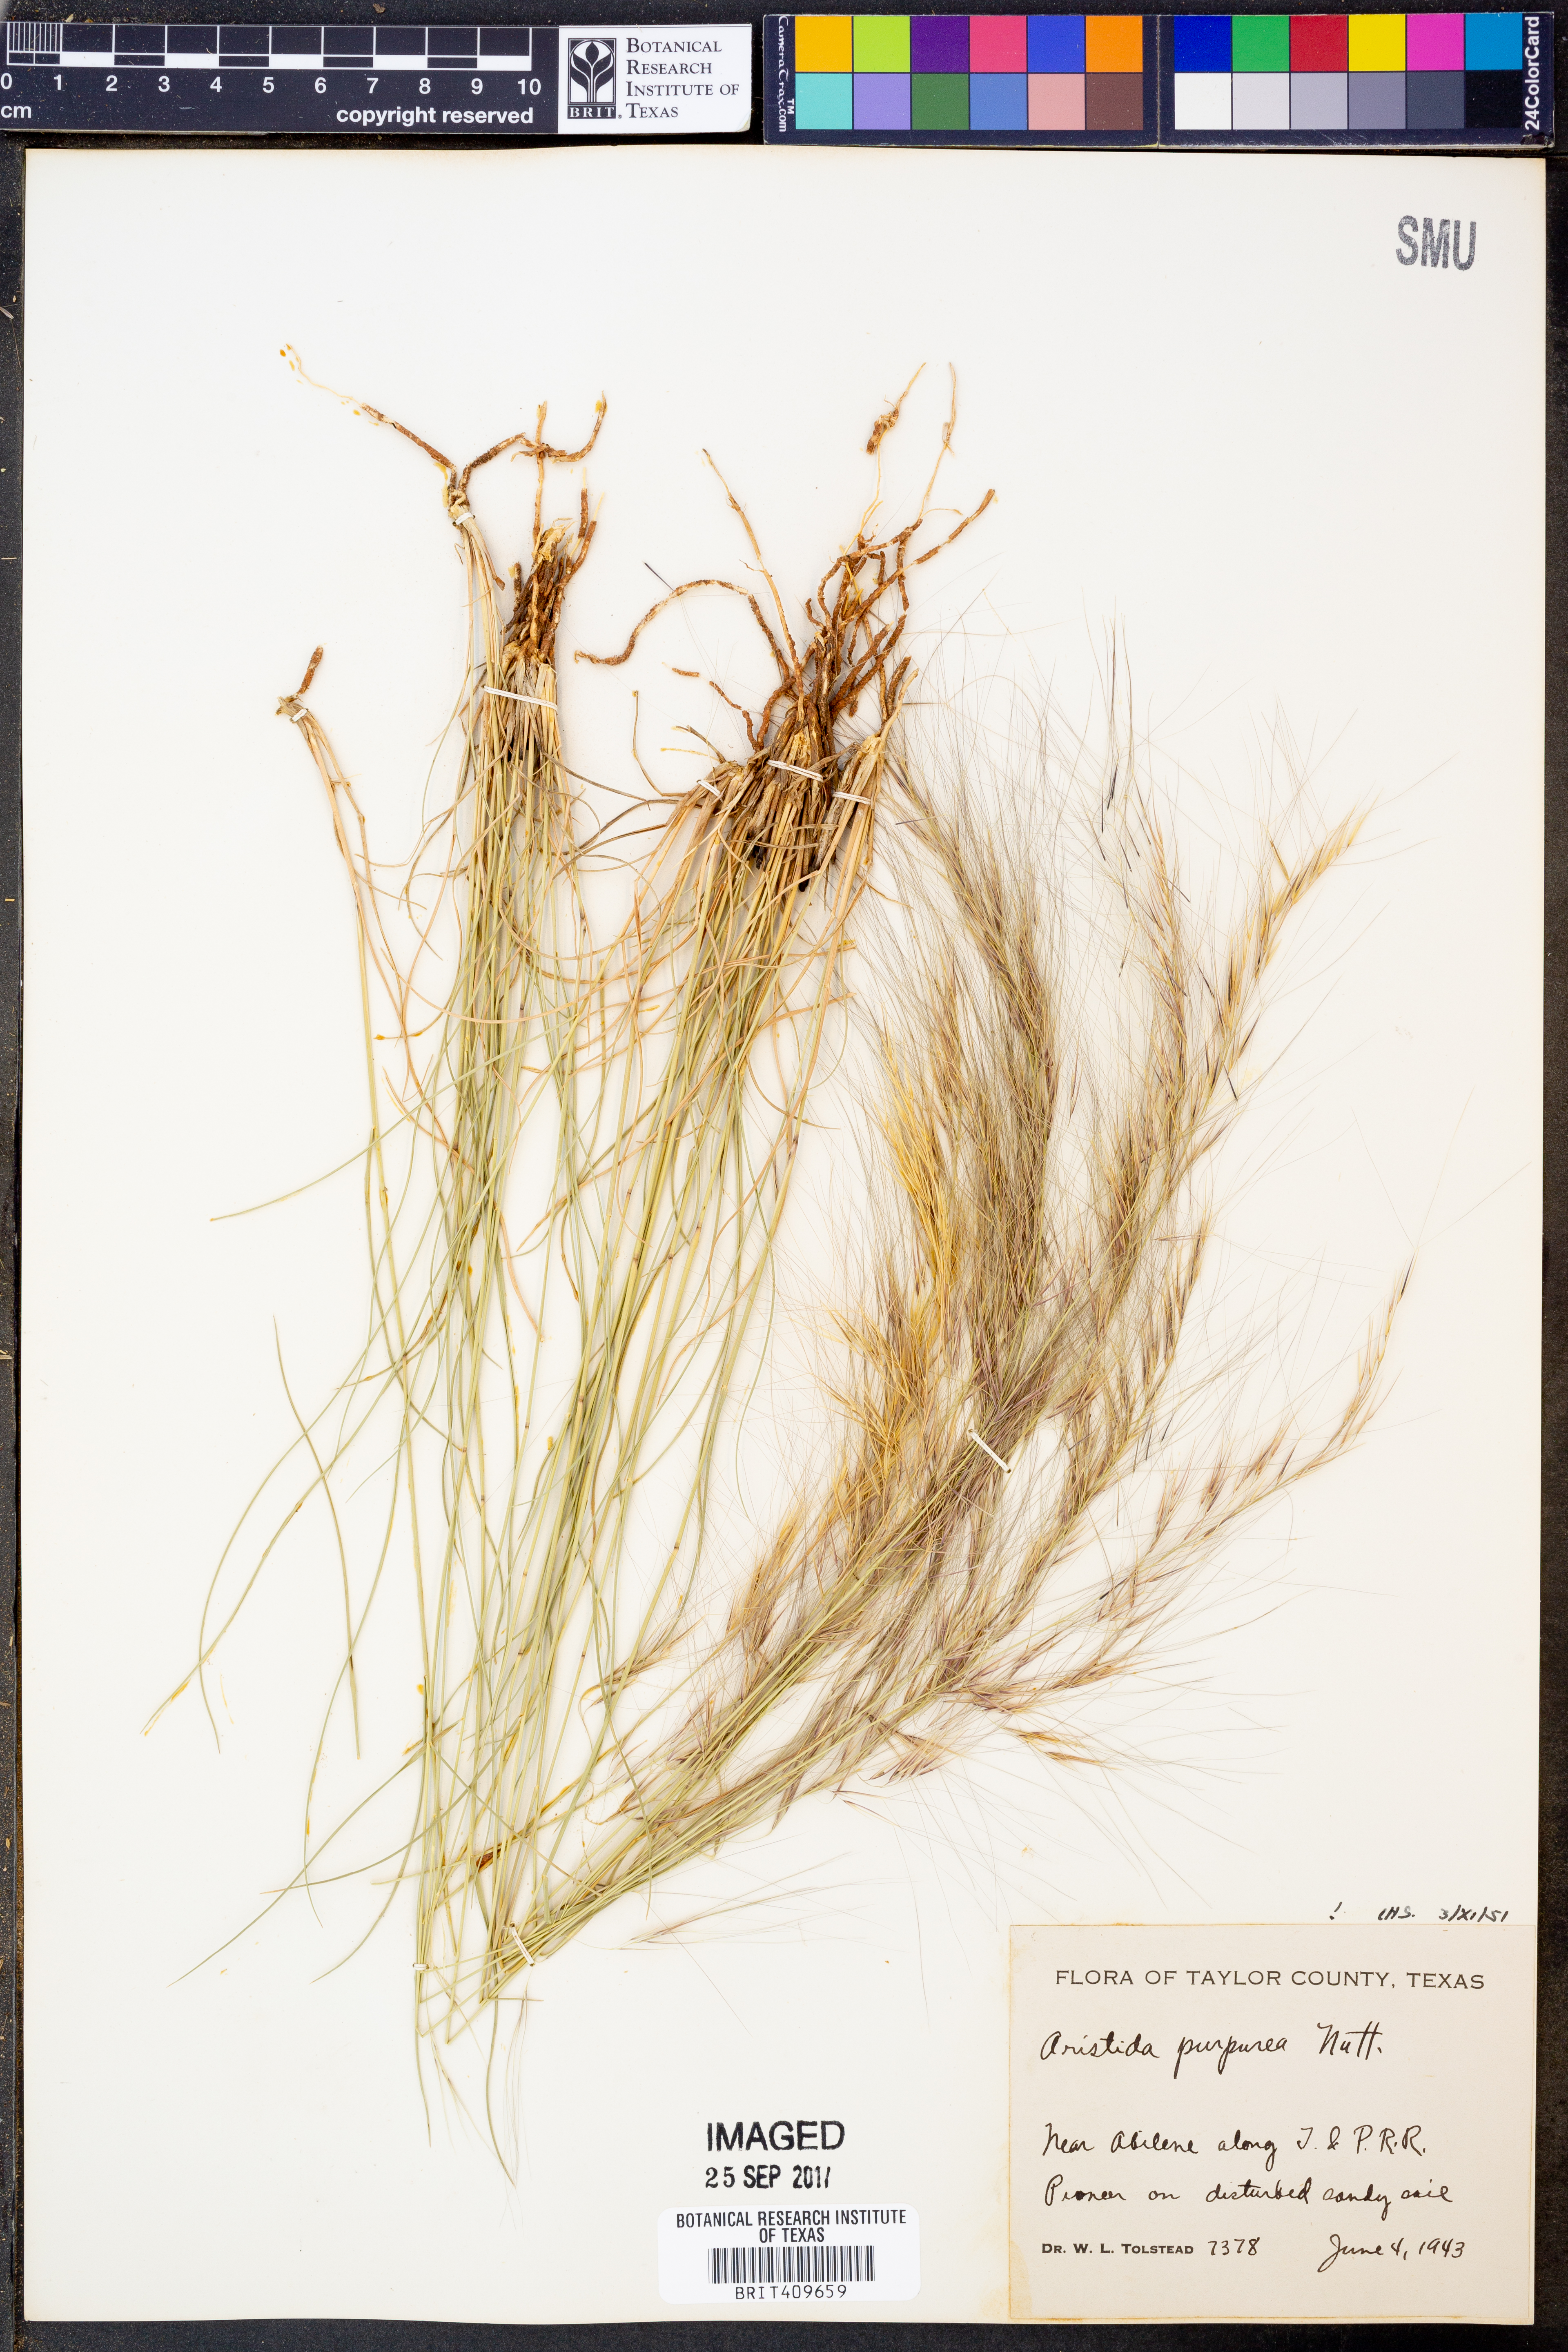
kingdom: Plantae
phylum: Tracheophyta
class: Liliopsida
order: Poales
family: Poaceae
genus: Aristida
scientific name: Aristida purpurea
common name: Purple threeawn
